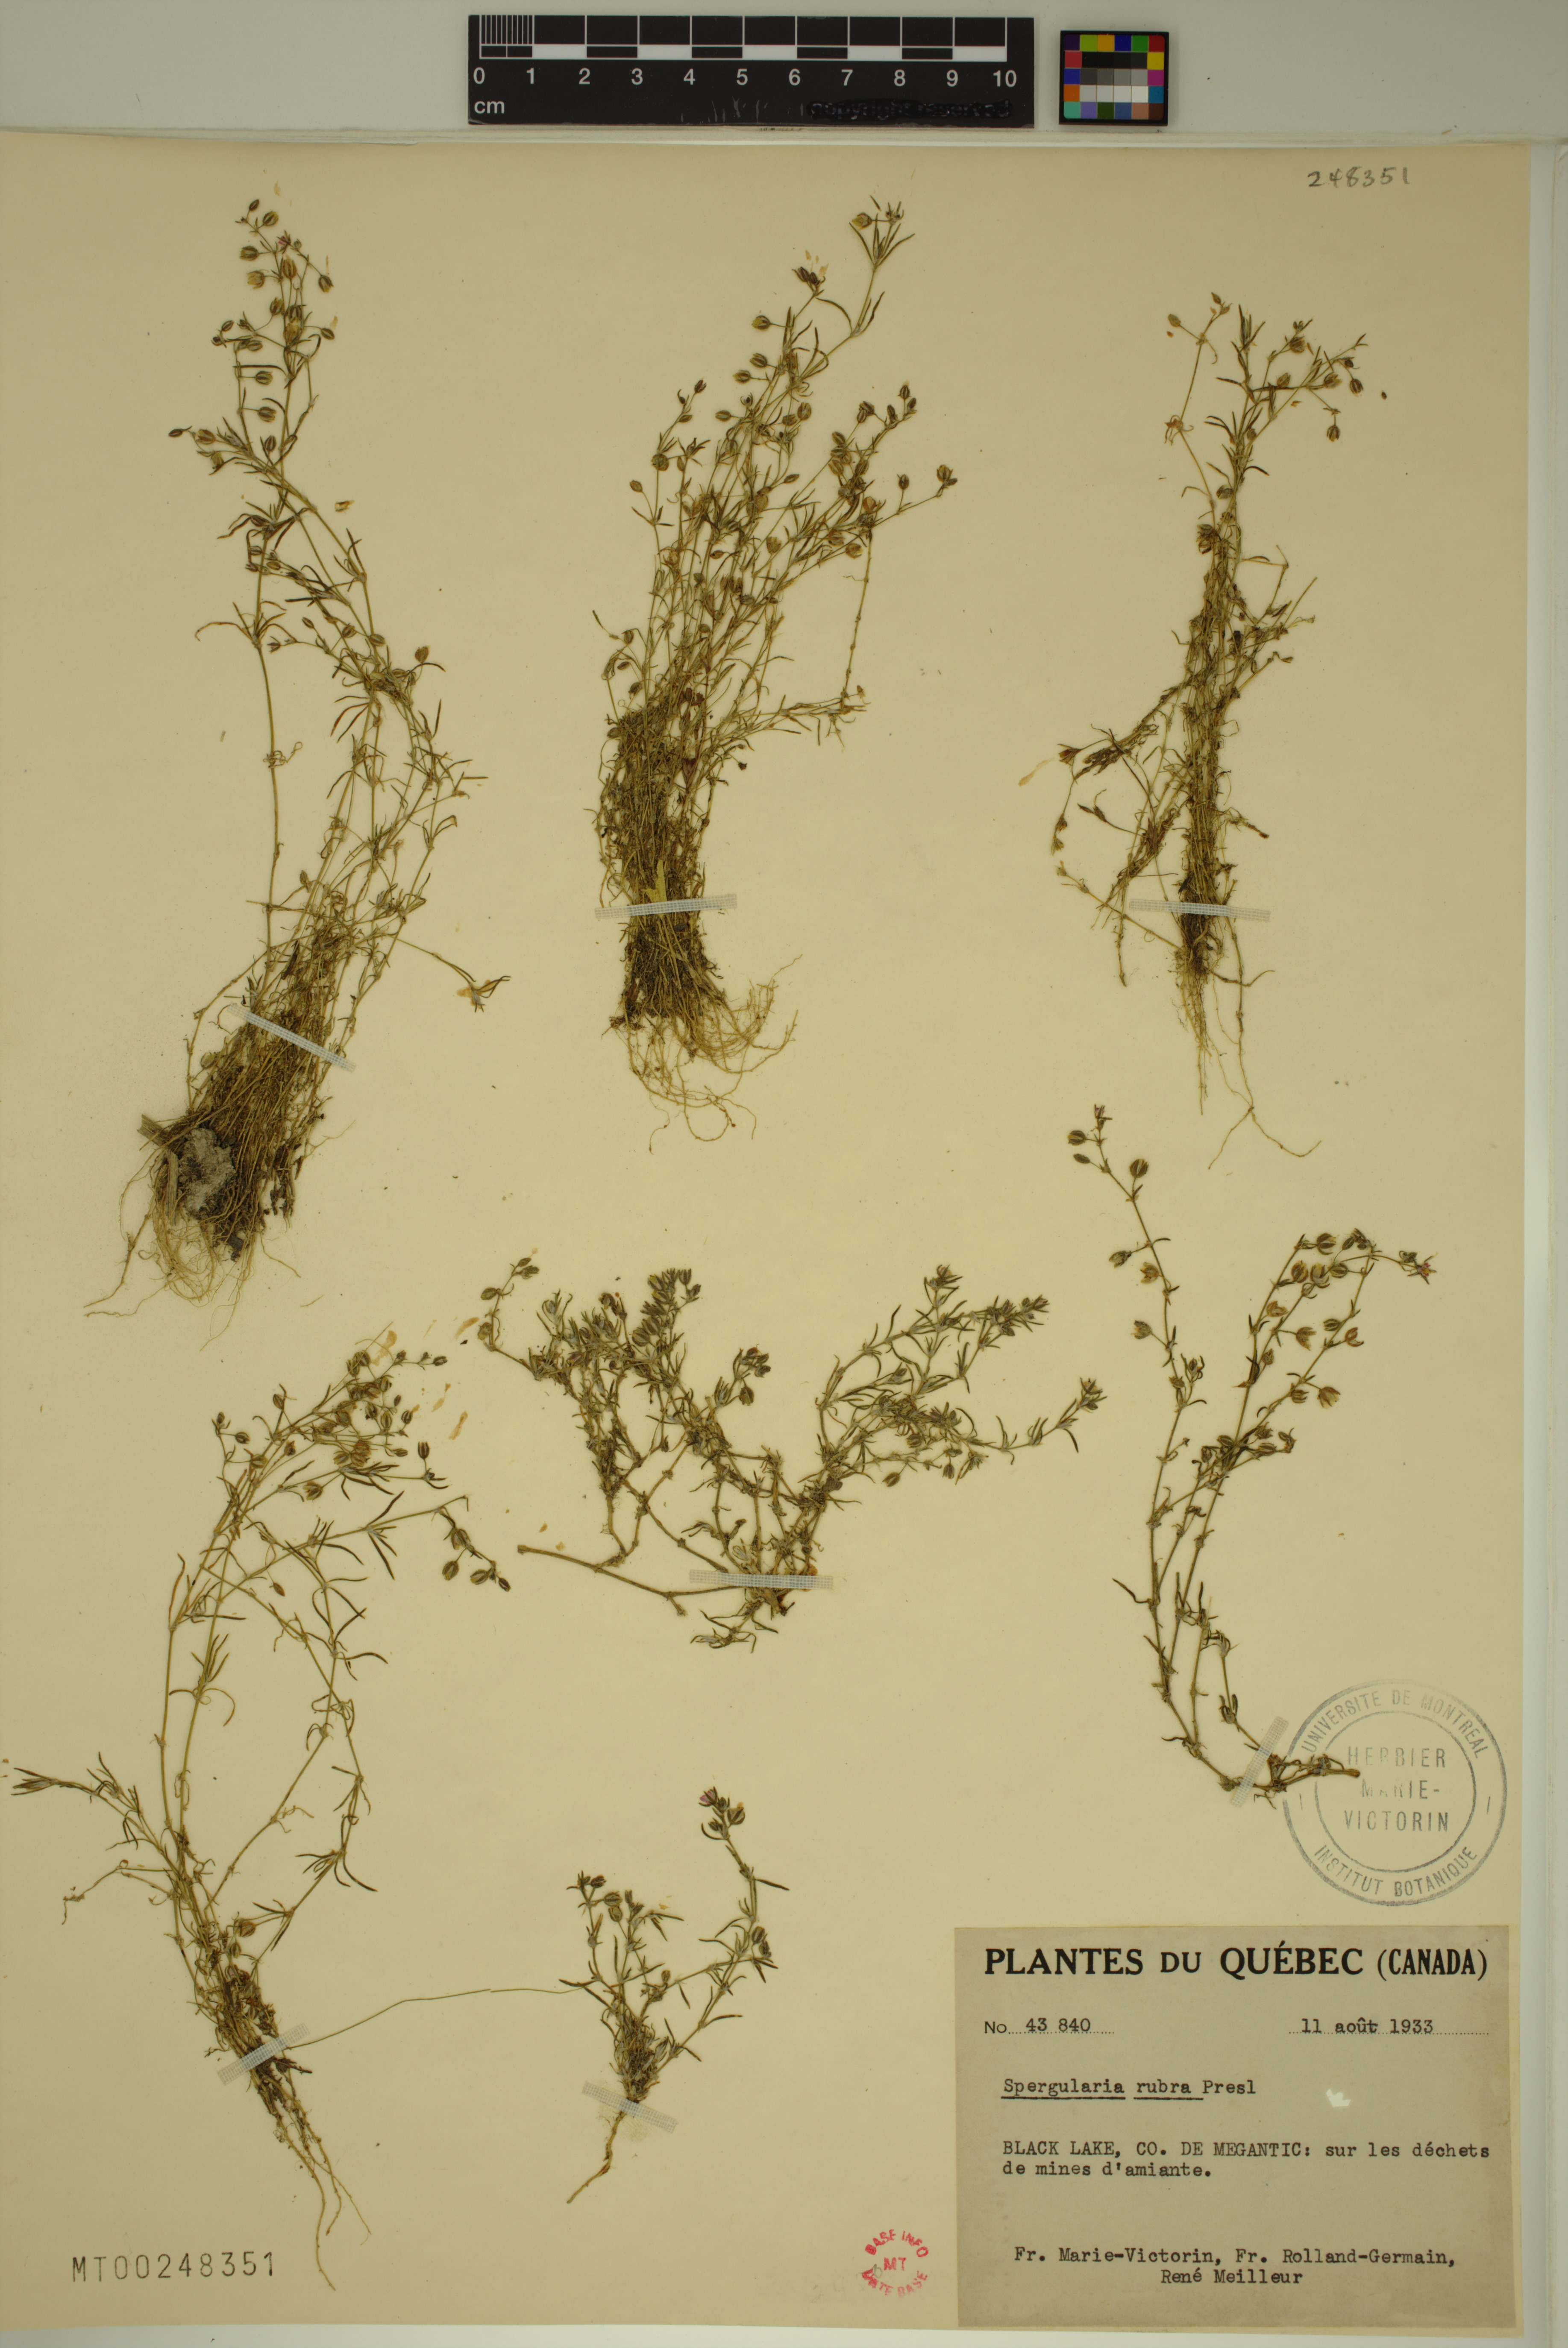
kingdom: Plantae
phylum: Tracheophyta
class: Magnoliopsida
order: Caryophyllales
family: Caryophyllaceae
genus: Spergularia
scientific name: Spergularia rubra
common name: Red sand-spurrey
